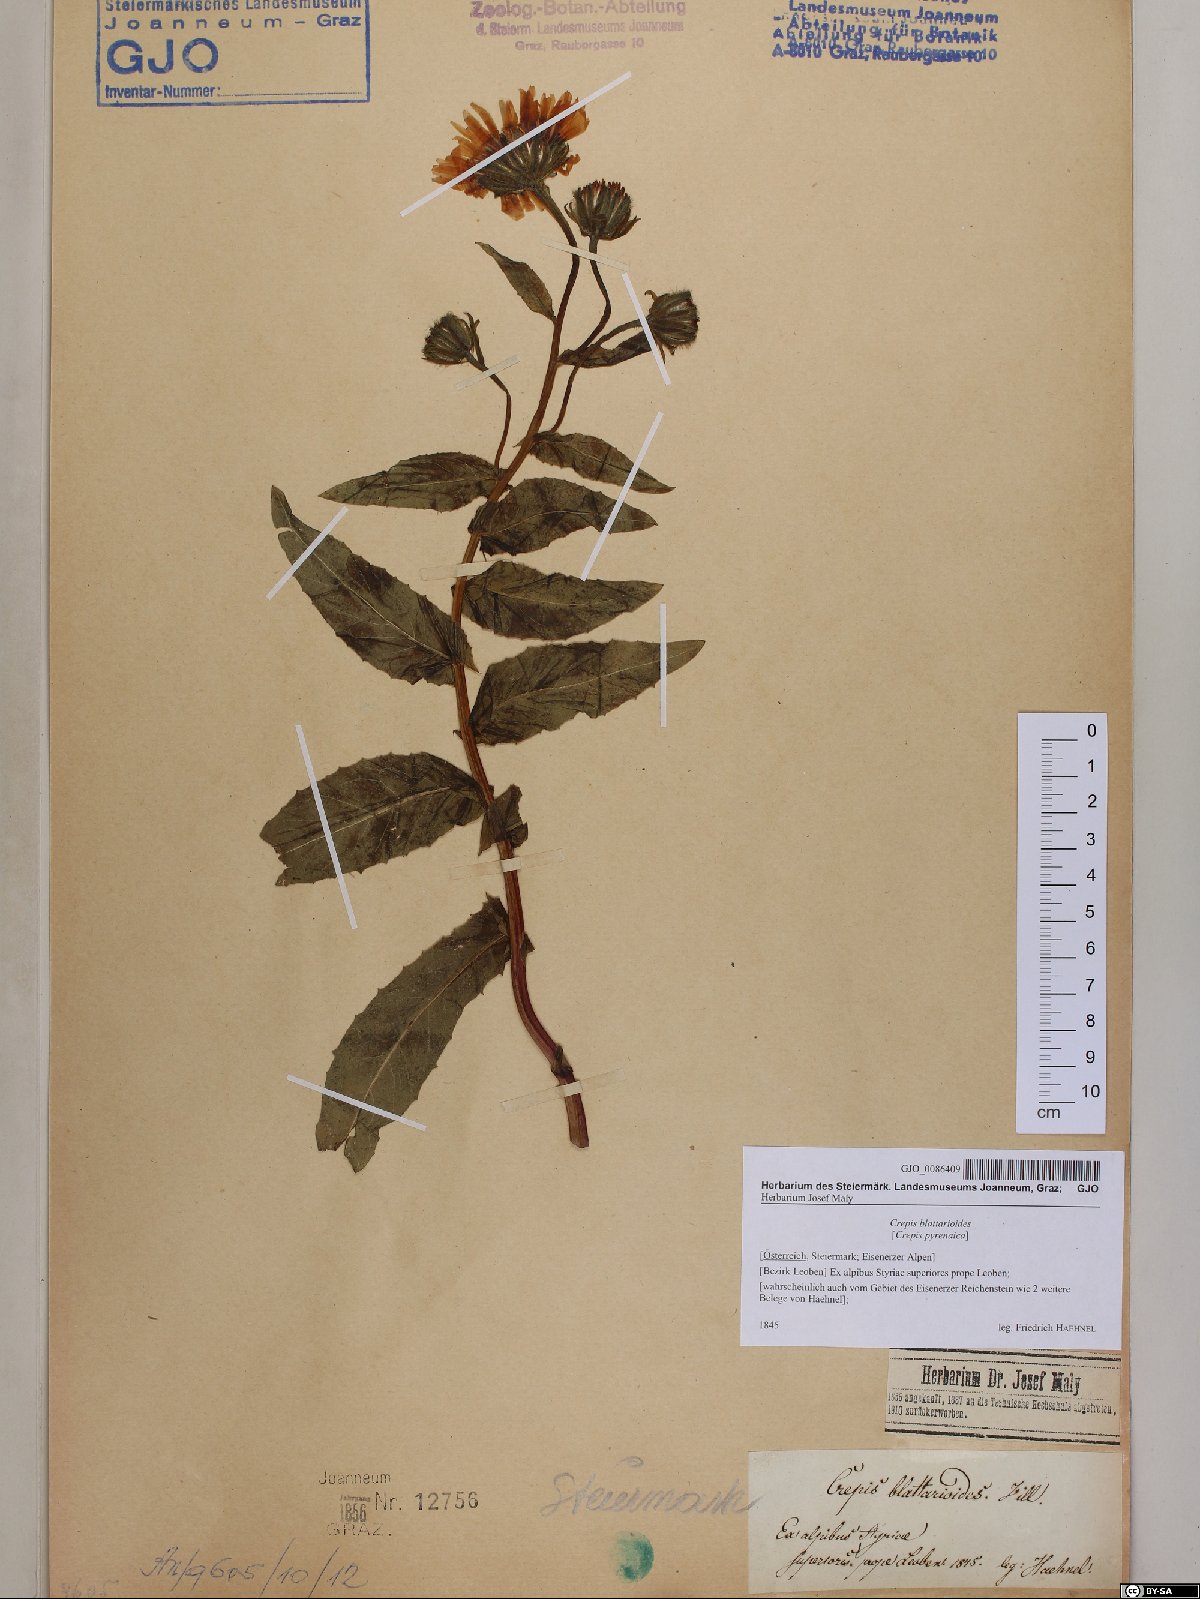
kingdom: Plantae
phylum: Tracheophyta
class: Magnoliopsida
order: Asterales
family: Asteraceae
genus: Crepis
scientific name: Crepis blattarioides
